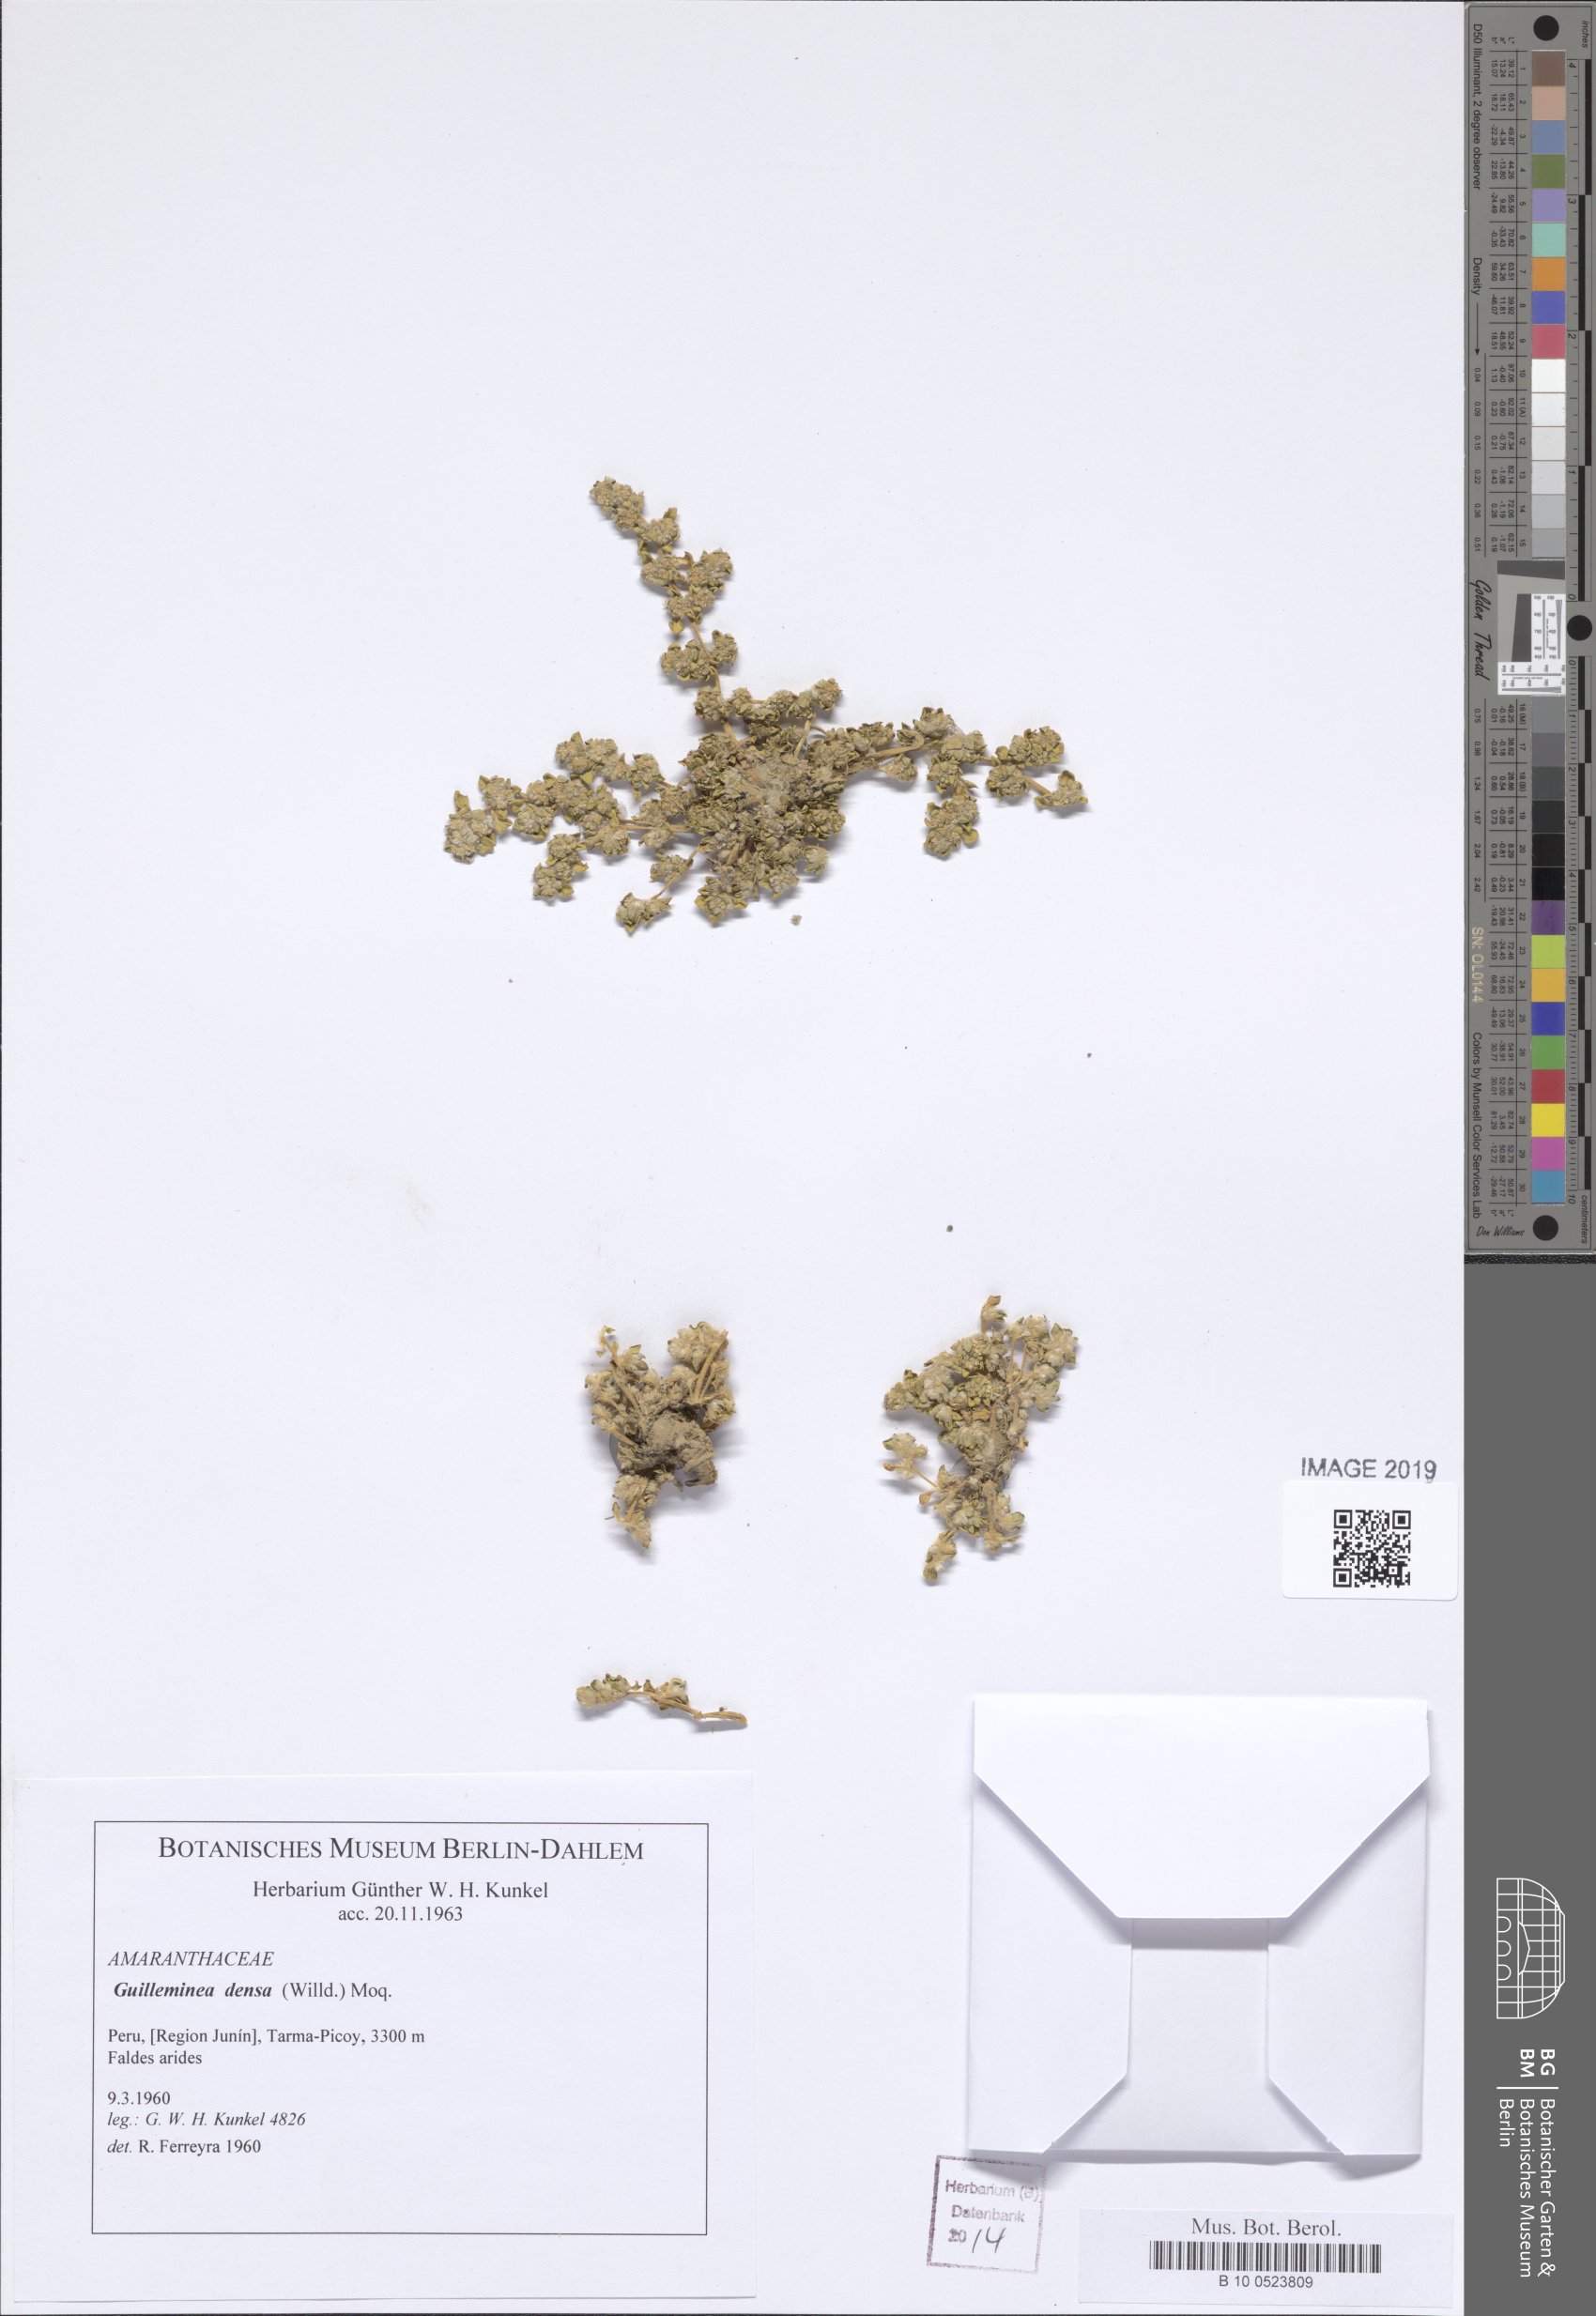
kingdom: Plantae
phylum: Tracheophyta
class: Magnoliopsida
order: Caryophyllales
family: Amaranthaceae
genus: Guilleminea
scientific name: Guilleminea densa
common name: Small matweed
